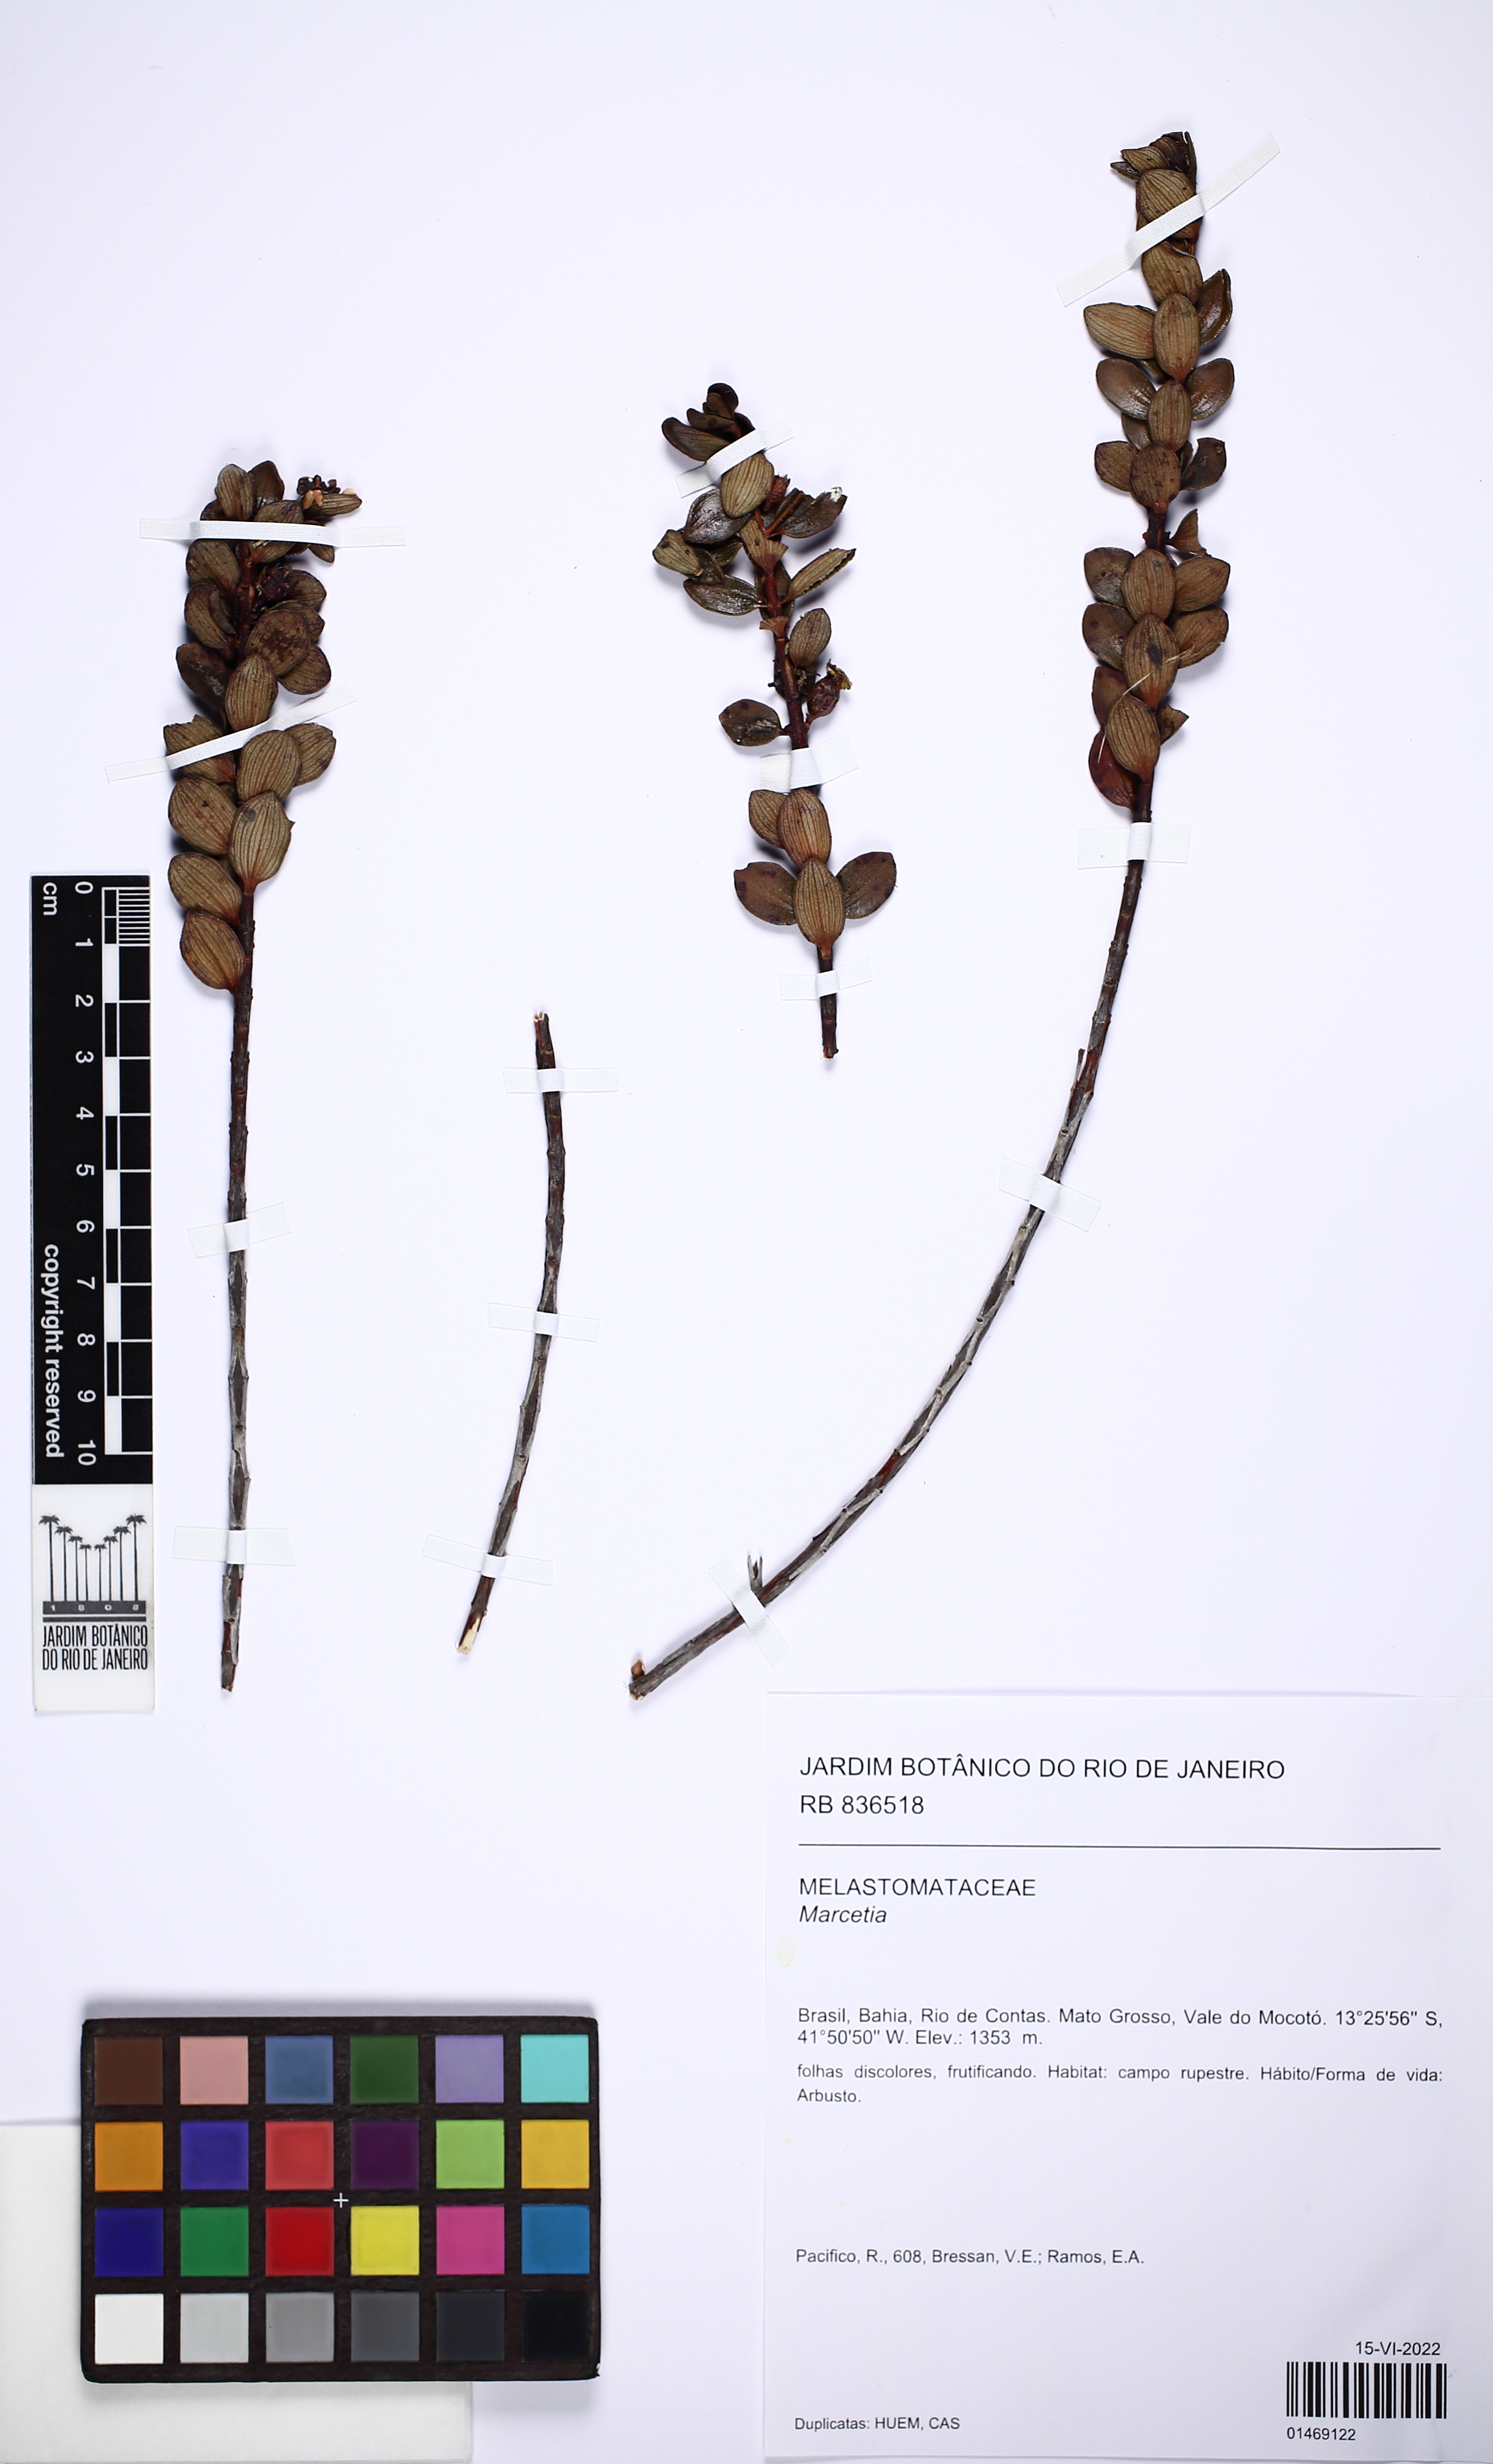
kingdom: Plantae
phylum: Tracheophyta
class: Magnoliopsida
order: Myrtales
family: Melastomataceae
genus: Marcetia
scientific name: Marcetia
